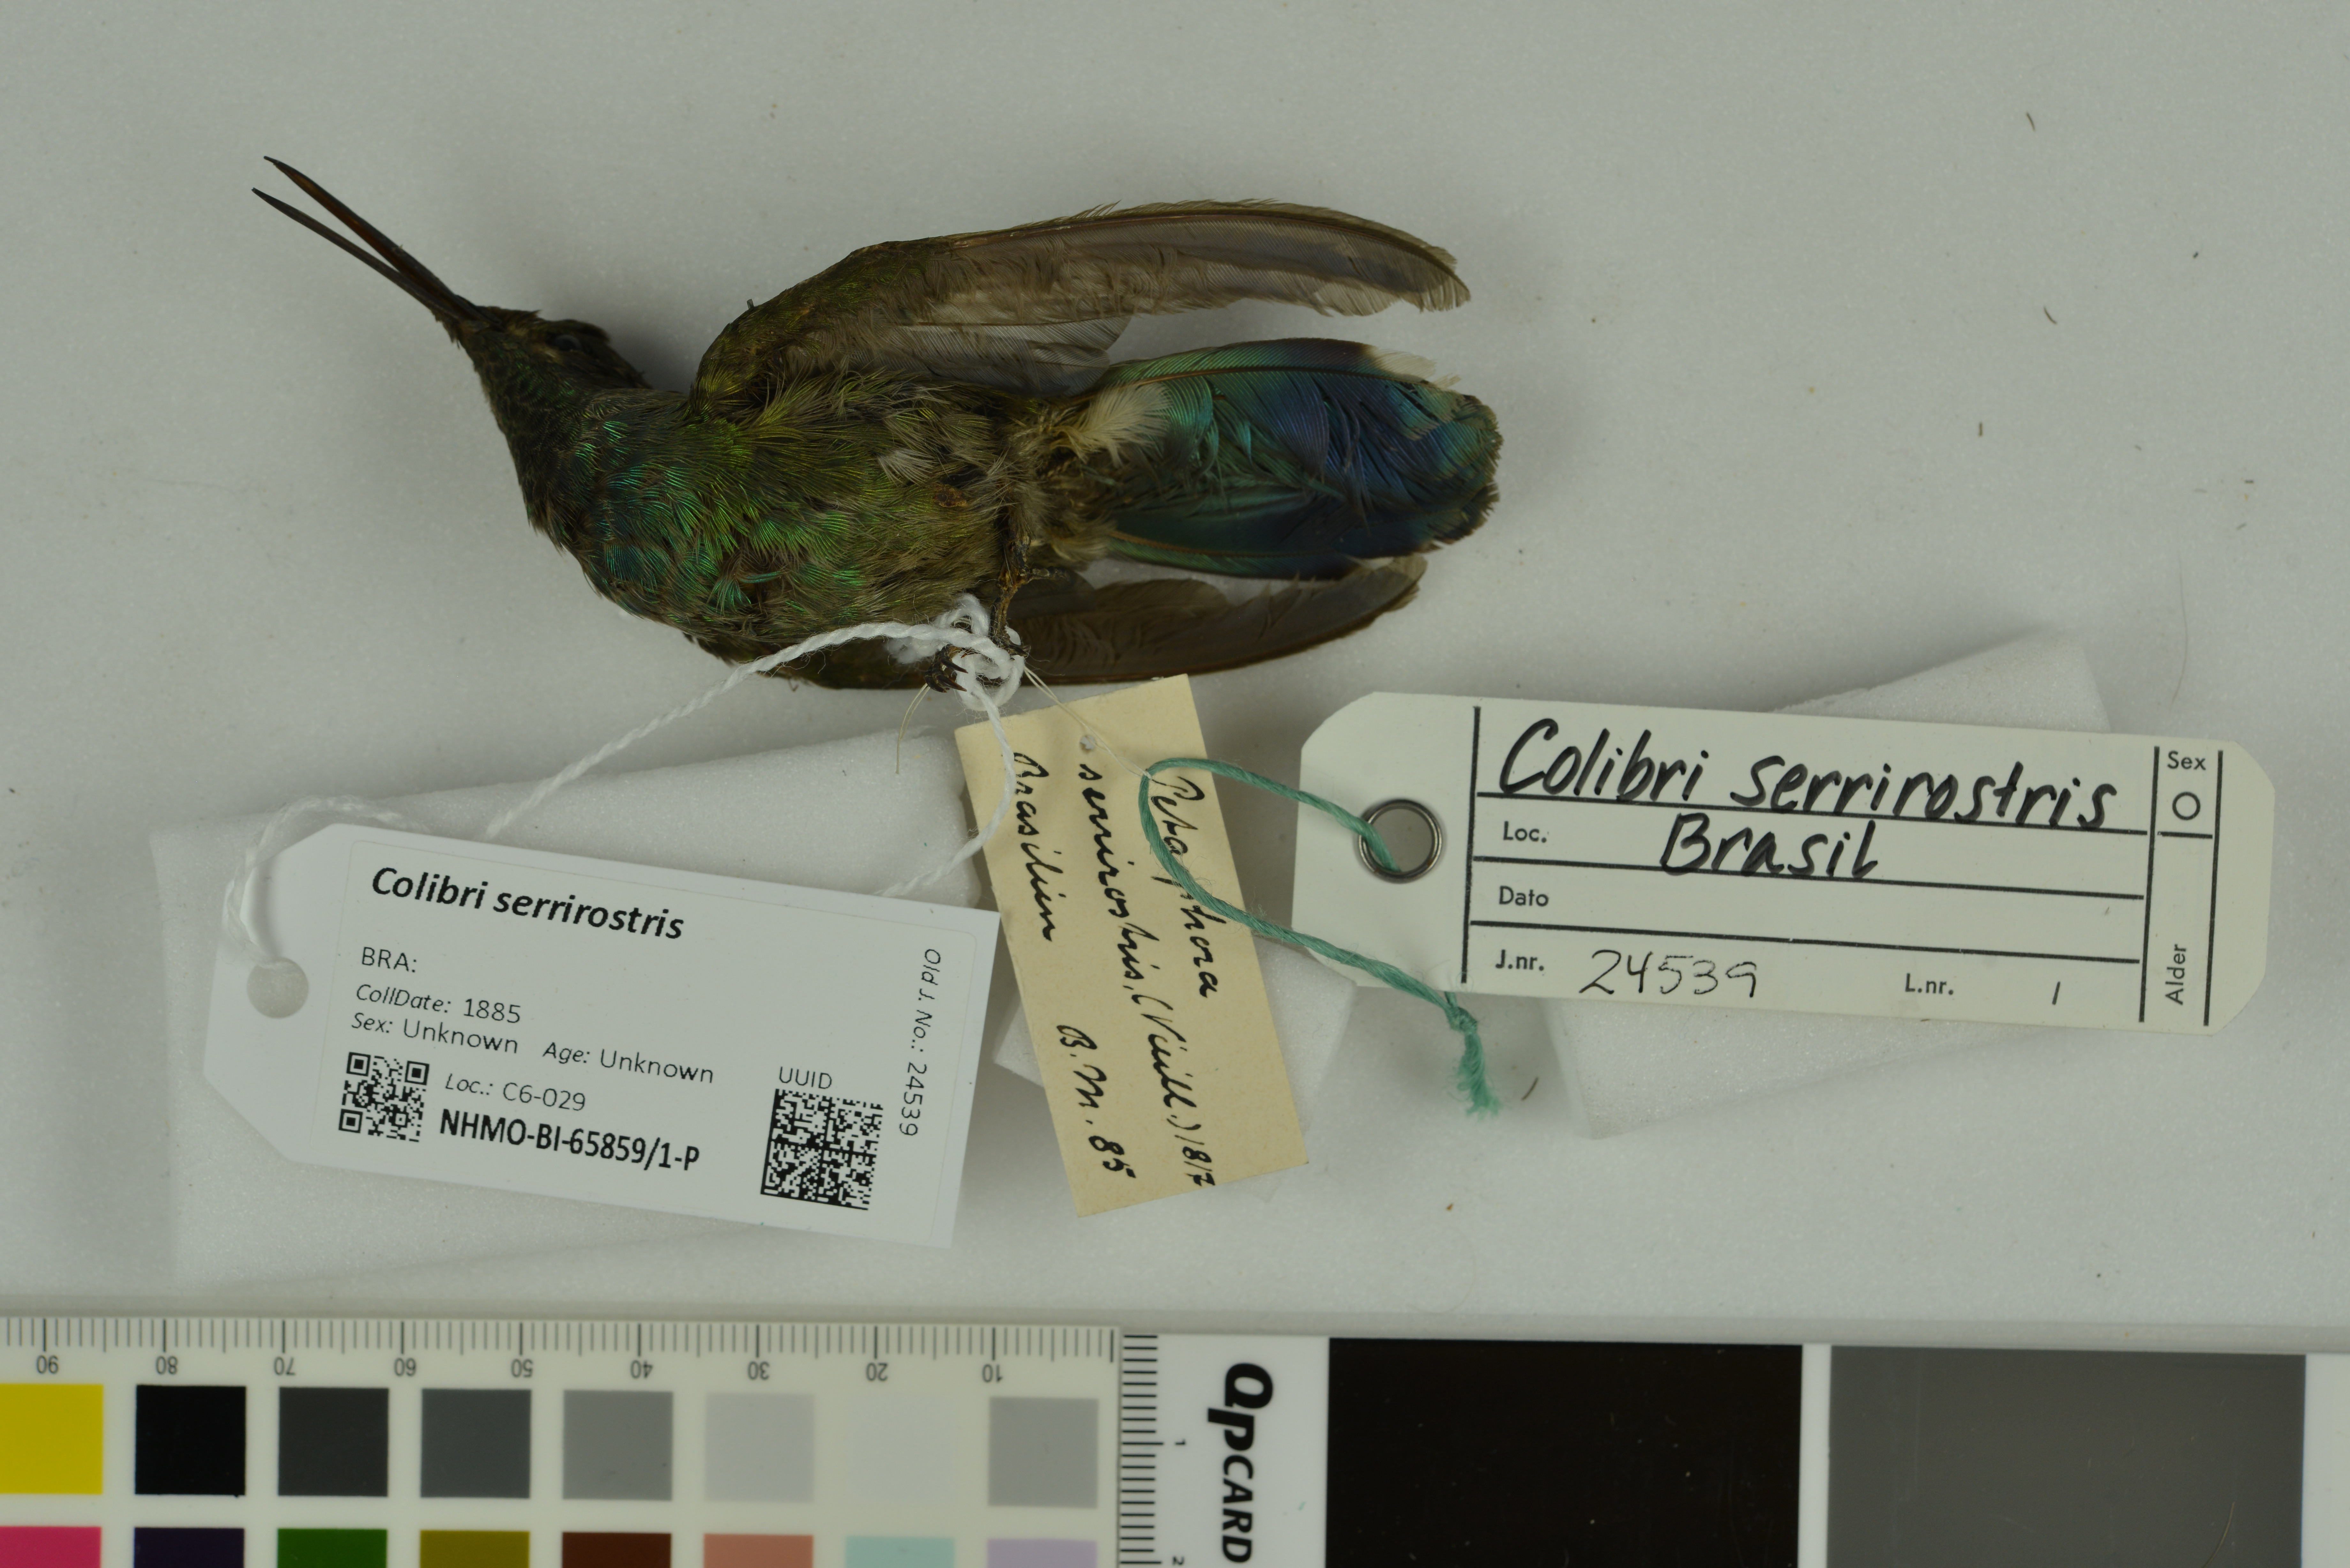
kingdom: Animalia
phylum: Chordata
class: Aves
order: Apodiformes
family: Trochilidae
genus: Colibri
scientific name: Colibri serrirostris
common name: White-vented violetear
